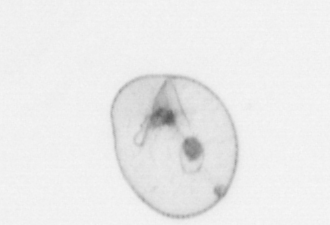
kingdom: Chromista
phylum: Myzozoa
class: Dinophyceae
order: Noctilucales
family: Noctilucaceae
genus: Noctiluca
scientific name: Noctiluca scintillans
